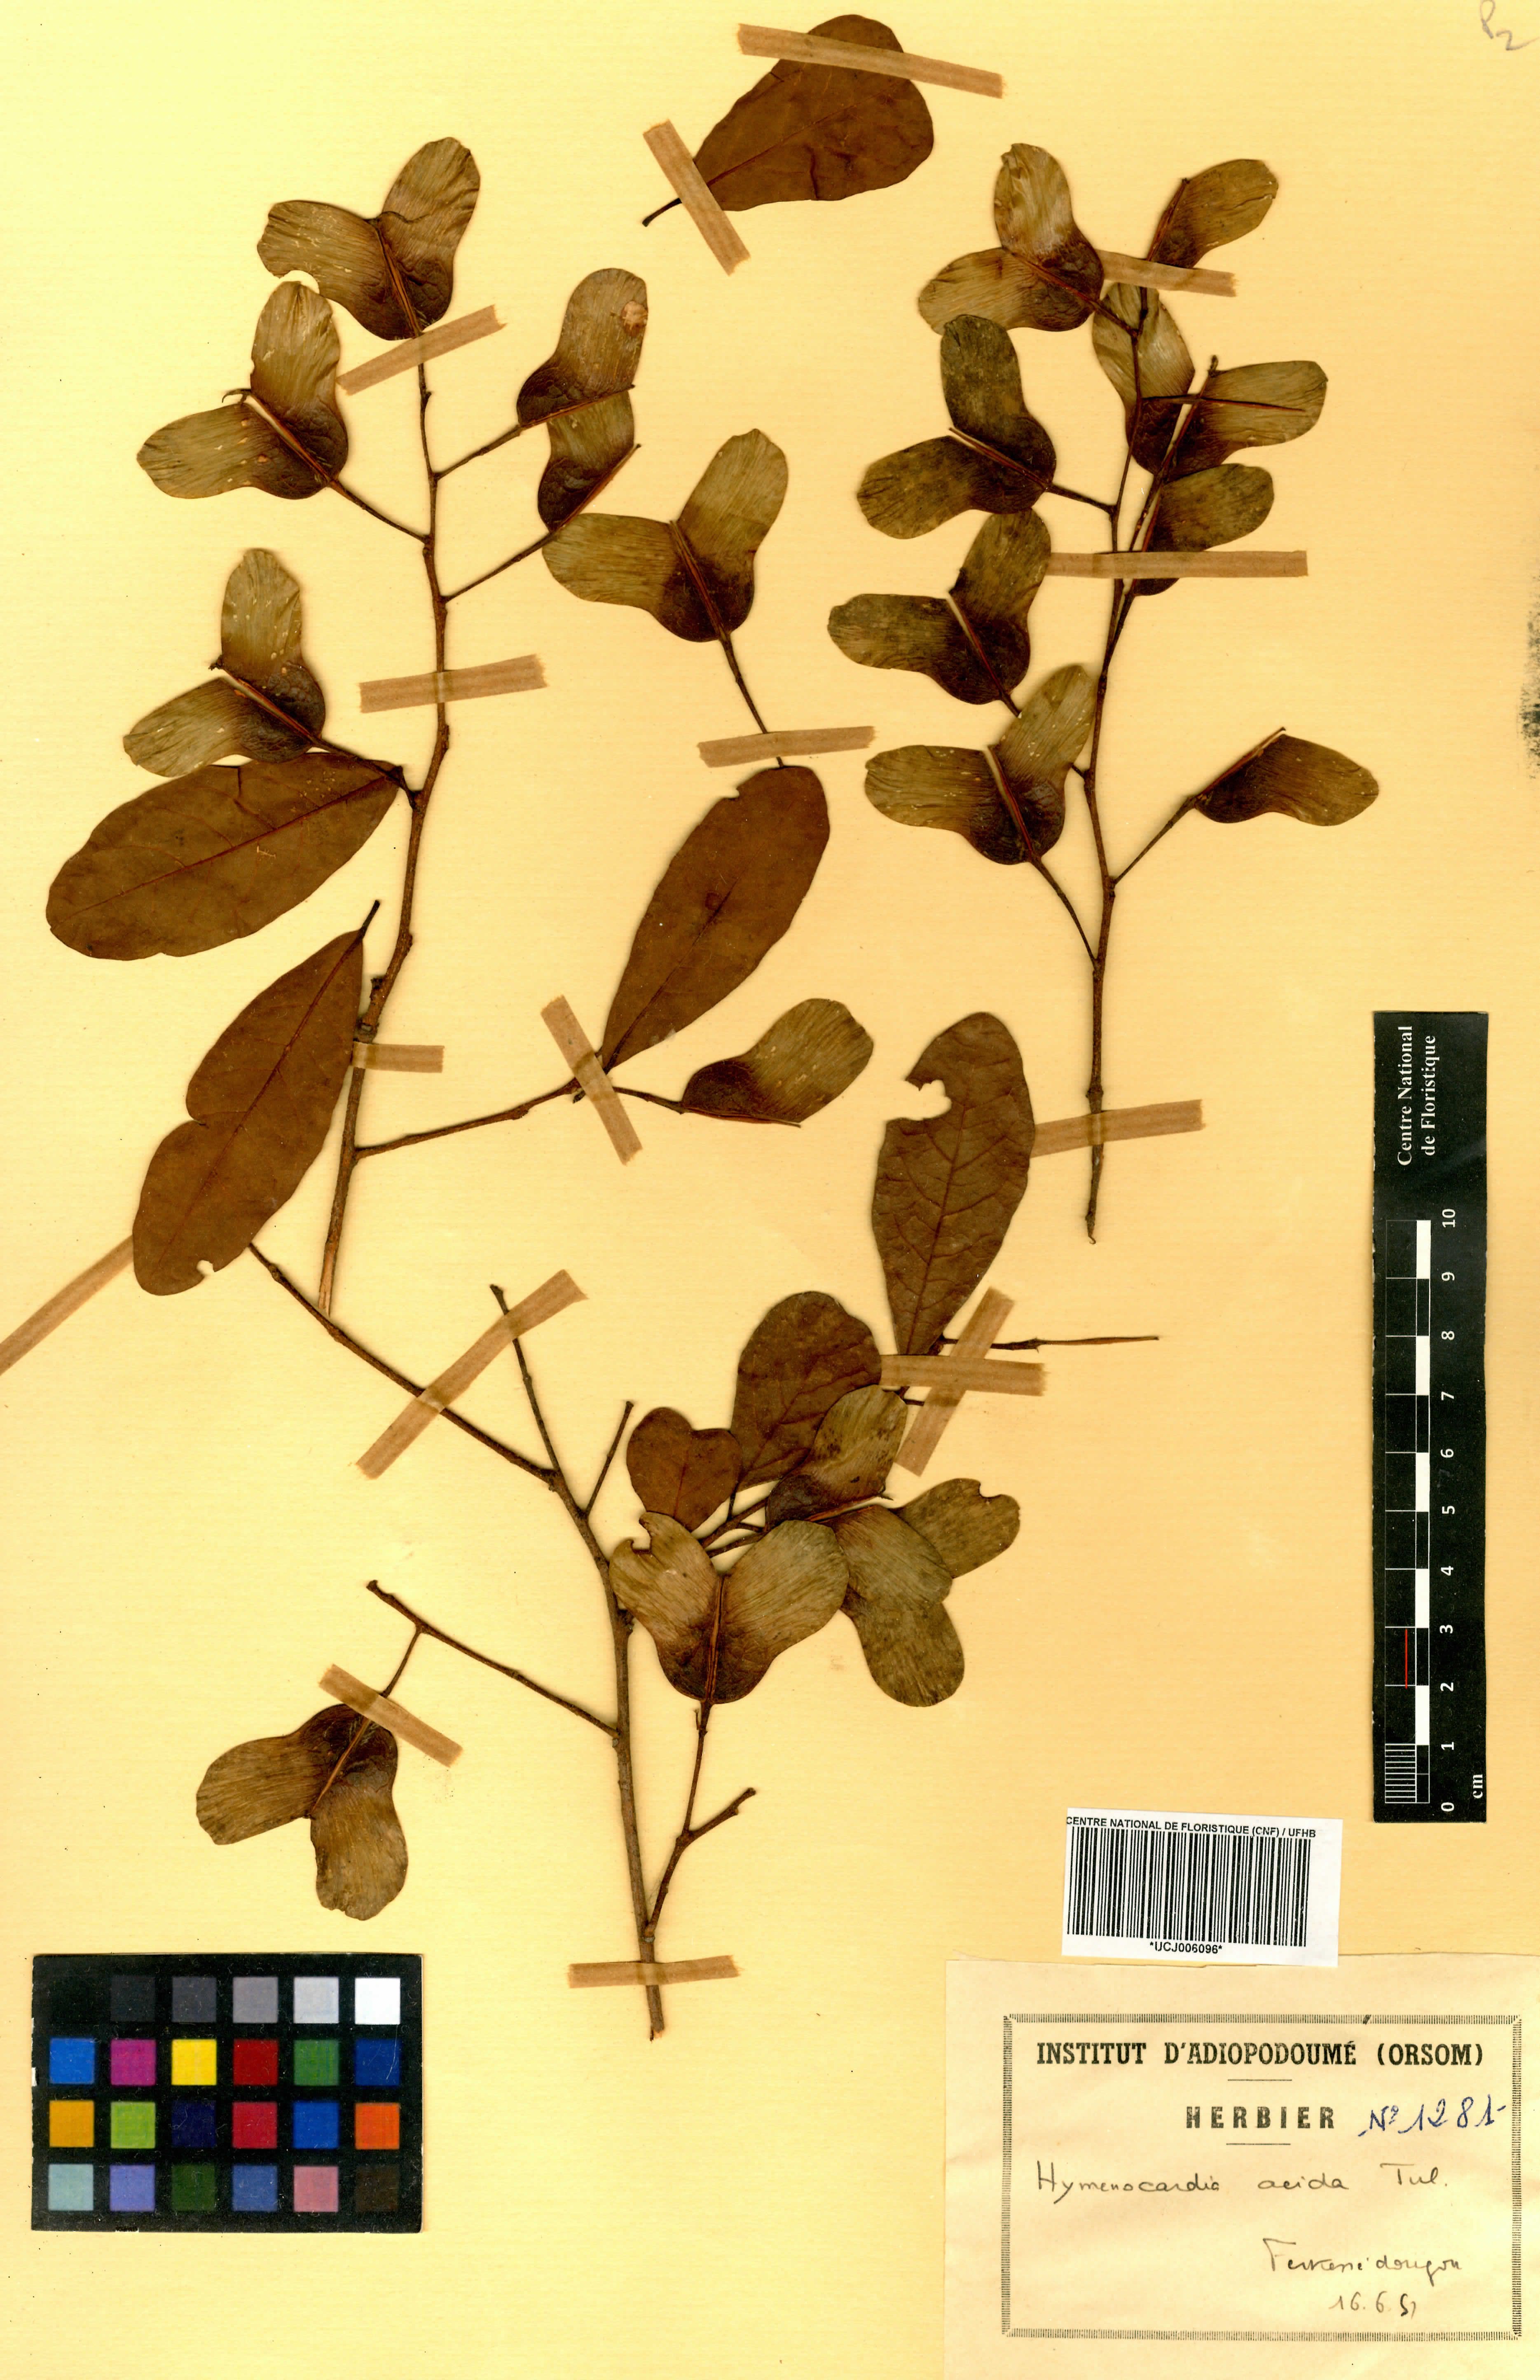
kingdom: Plantae
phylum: Tracheophyta
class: Magnoliopsida
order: Malpighiales
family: Phyllanthaceae
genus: Hymenocardia
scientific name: Hymenocardia acida
